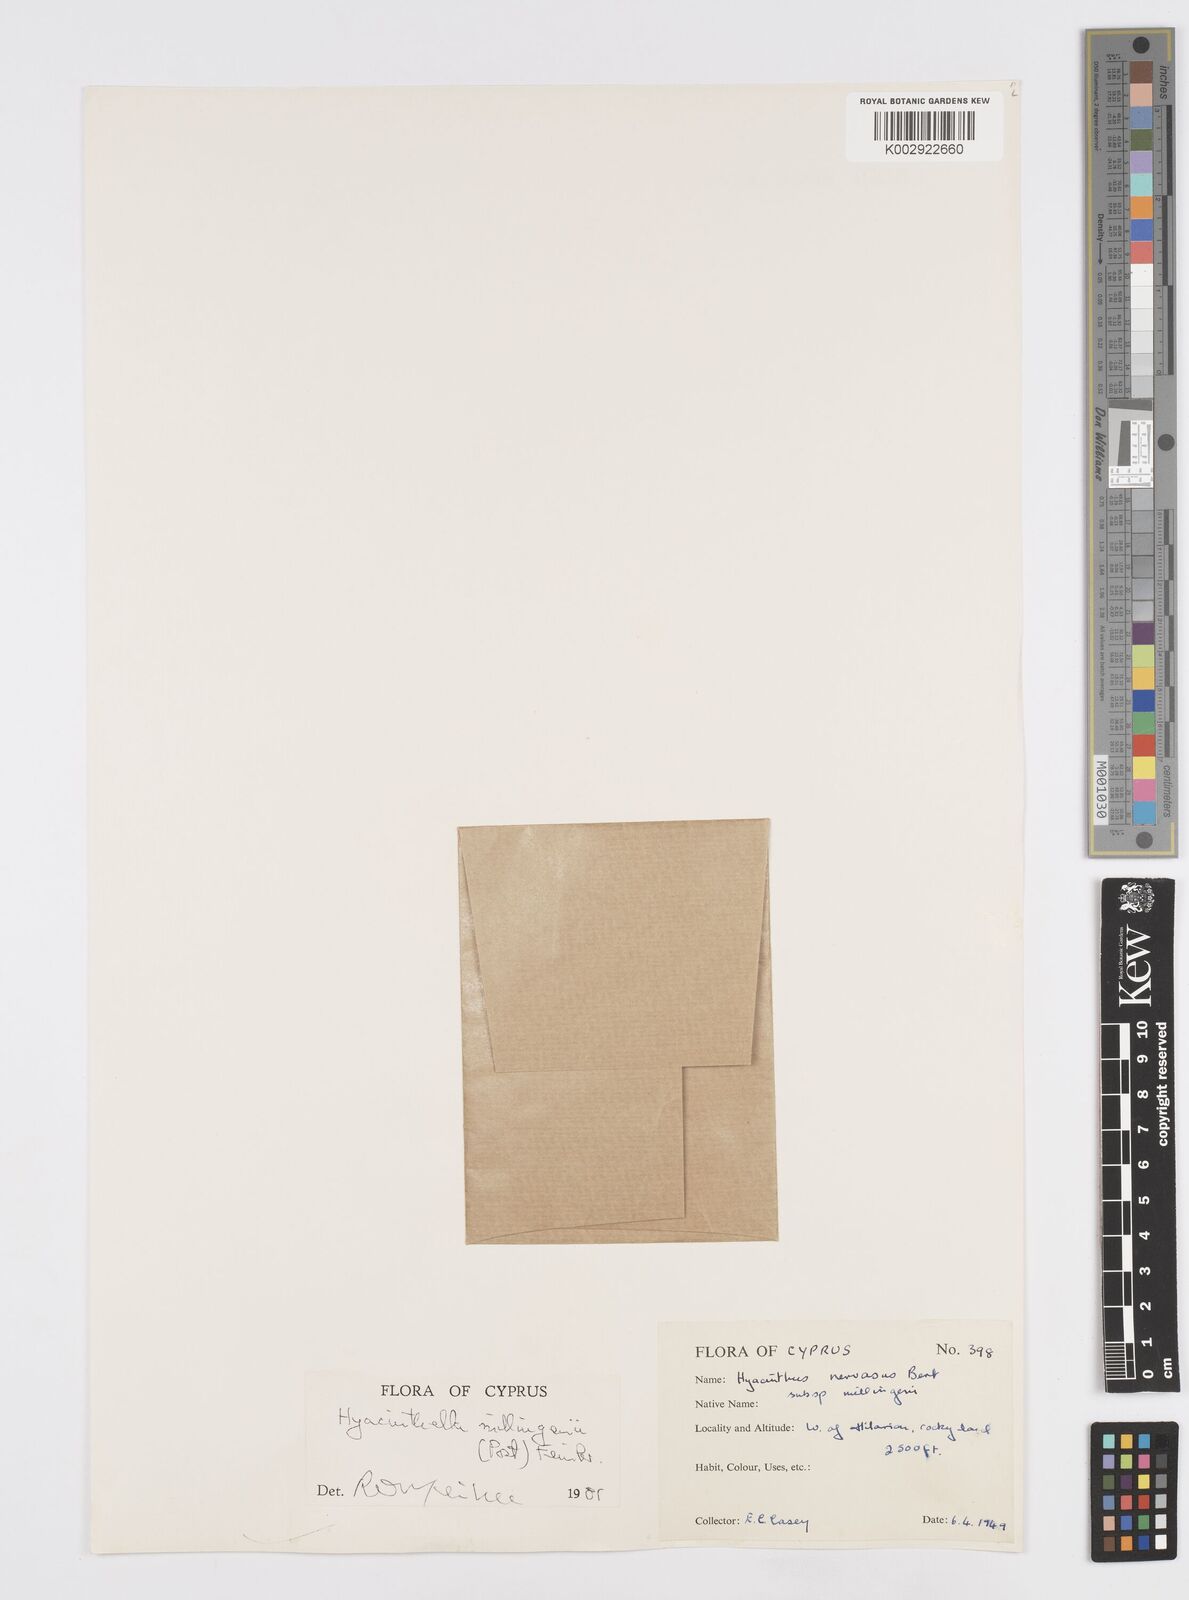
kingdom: Plantae
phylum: Tracheophyta
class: Liliopsida
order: Asparagales
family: Asparagaceae
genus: Hyacinthella
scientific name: Hyacinthella millingenii
